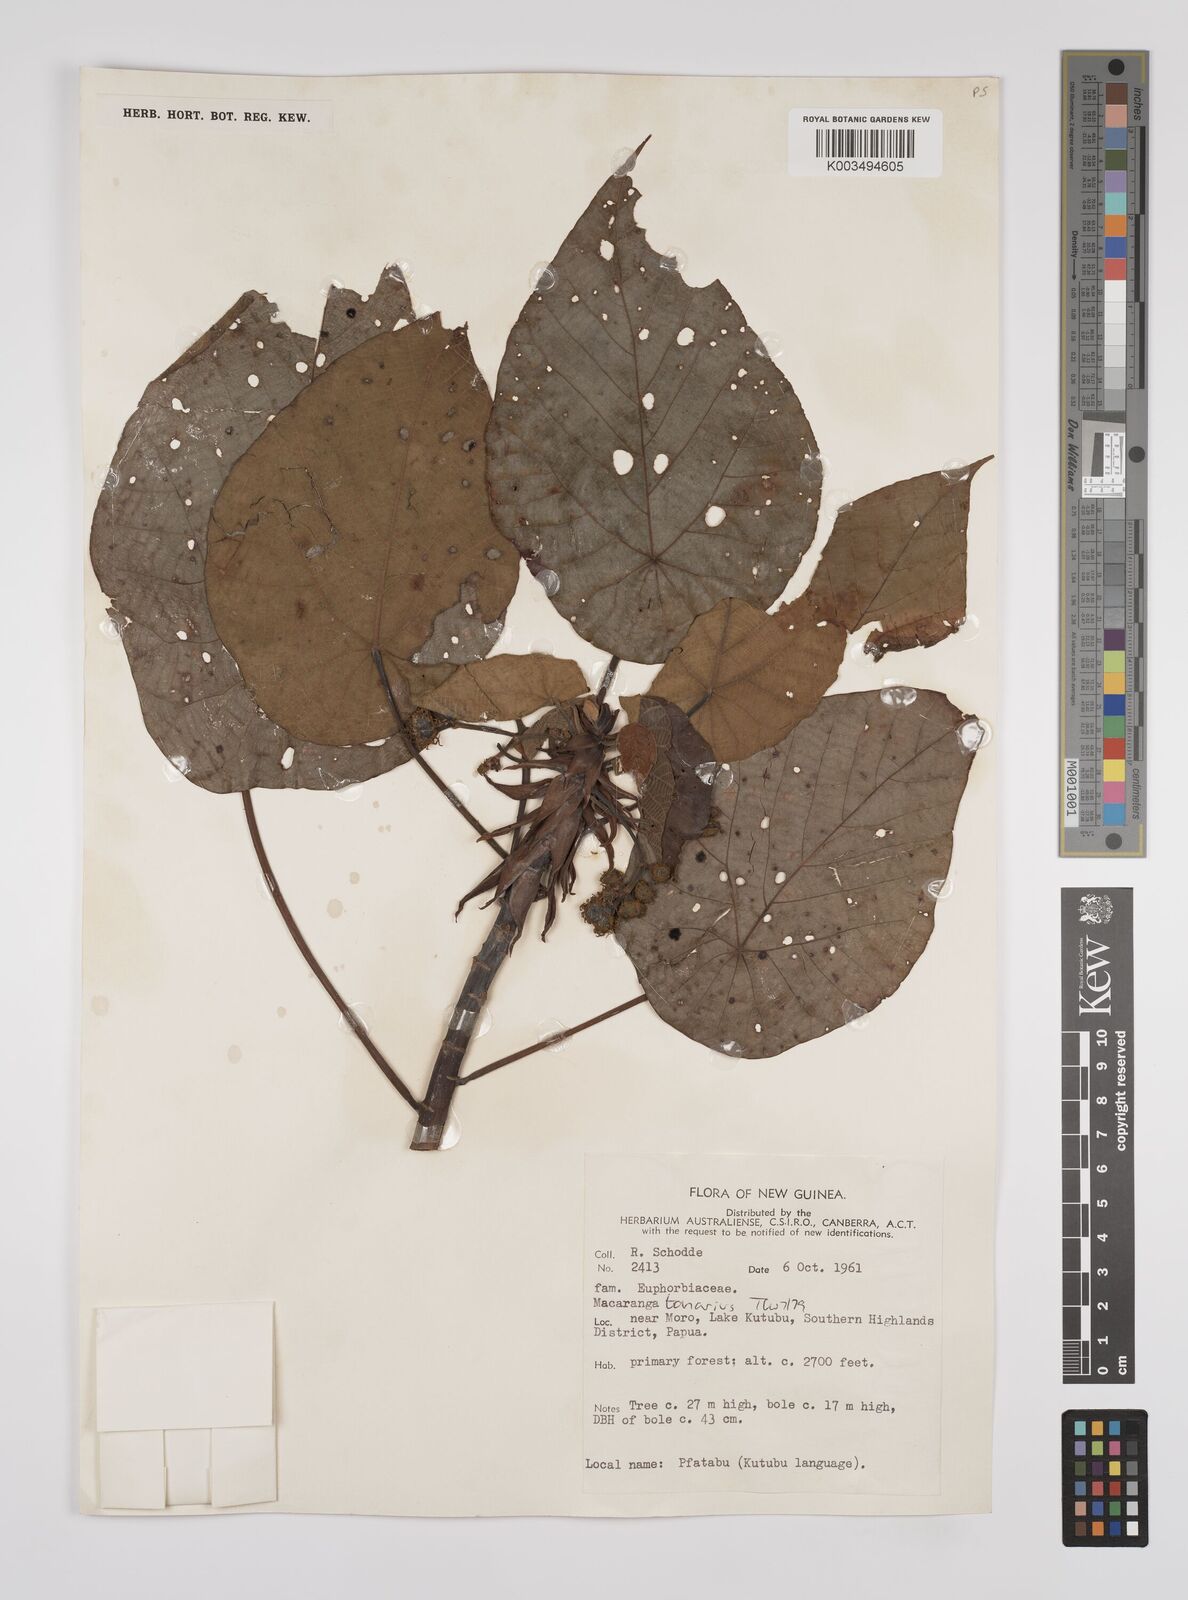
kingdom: Plantae
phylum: Tracheophyta
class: Magnoliopsida
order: Malpighiales
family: Euphorbiaceae
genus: Macaranga
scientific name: Macaranga tanarius
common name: Parasol leaf tree
